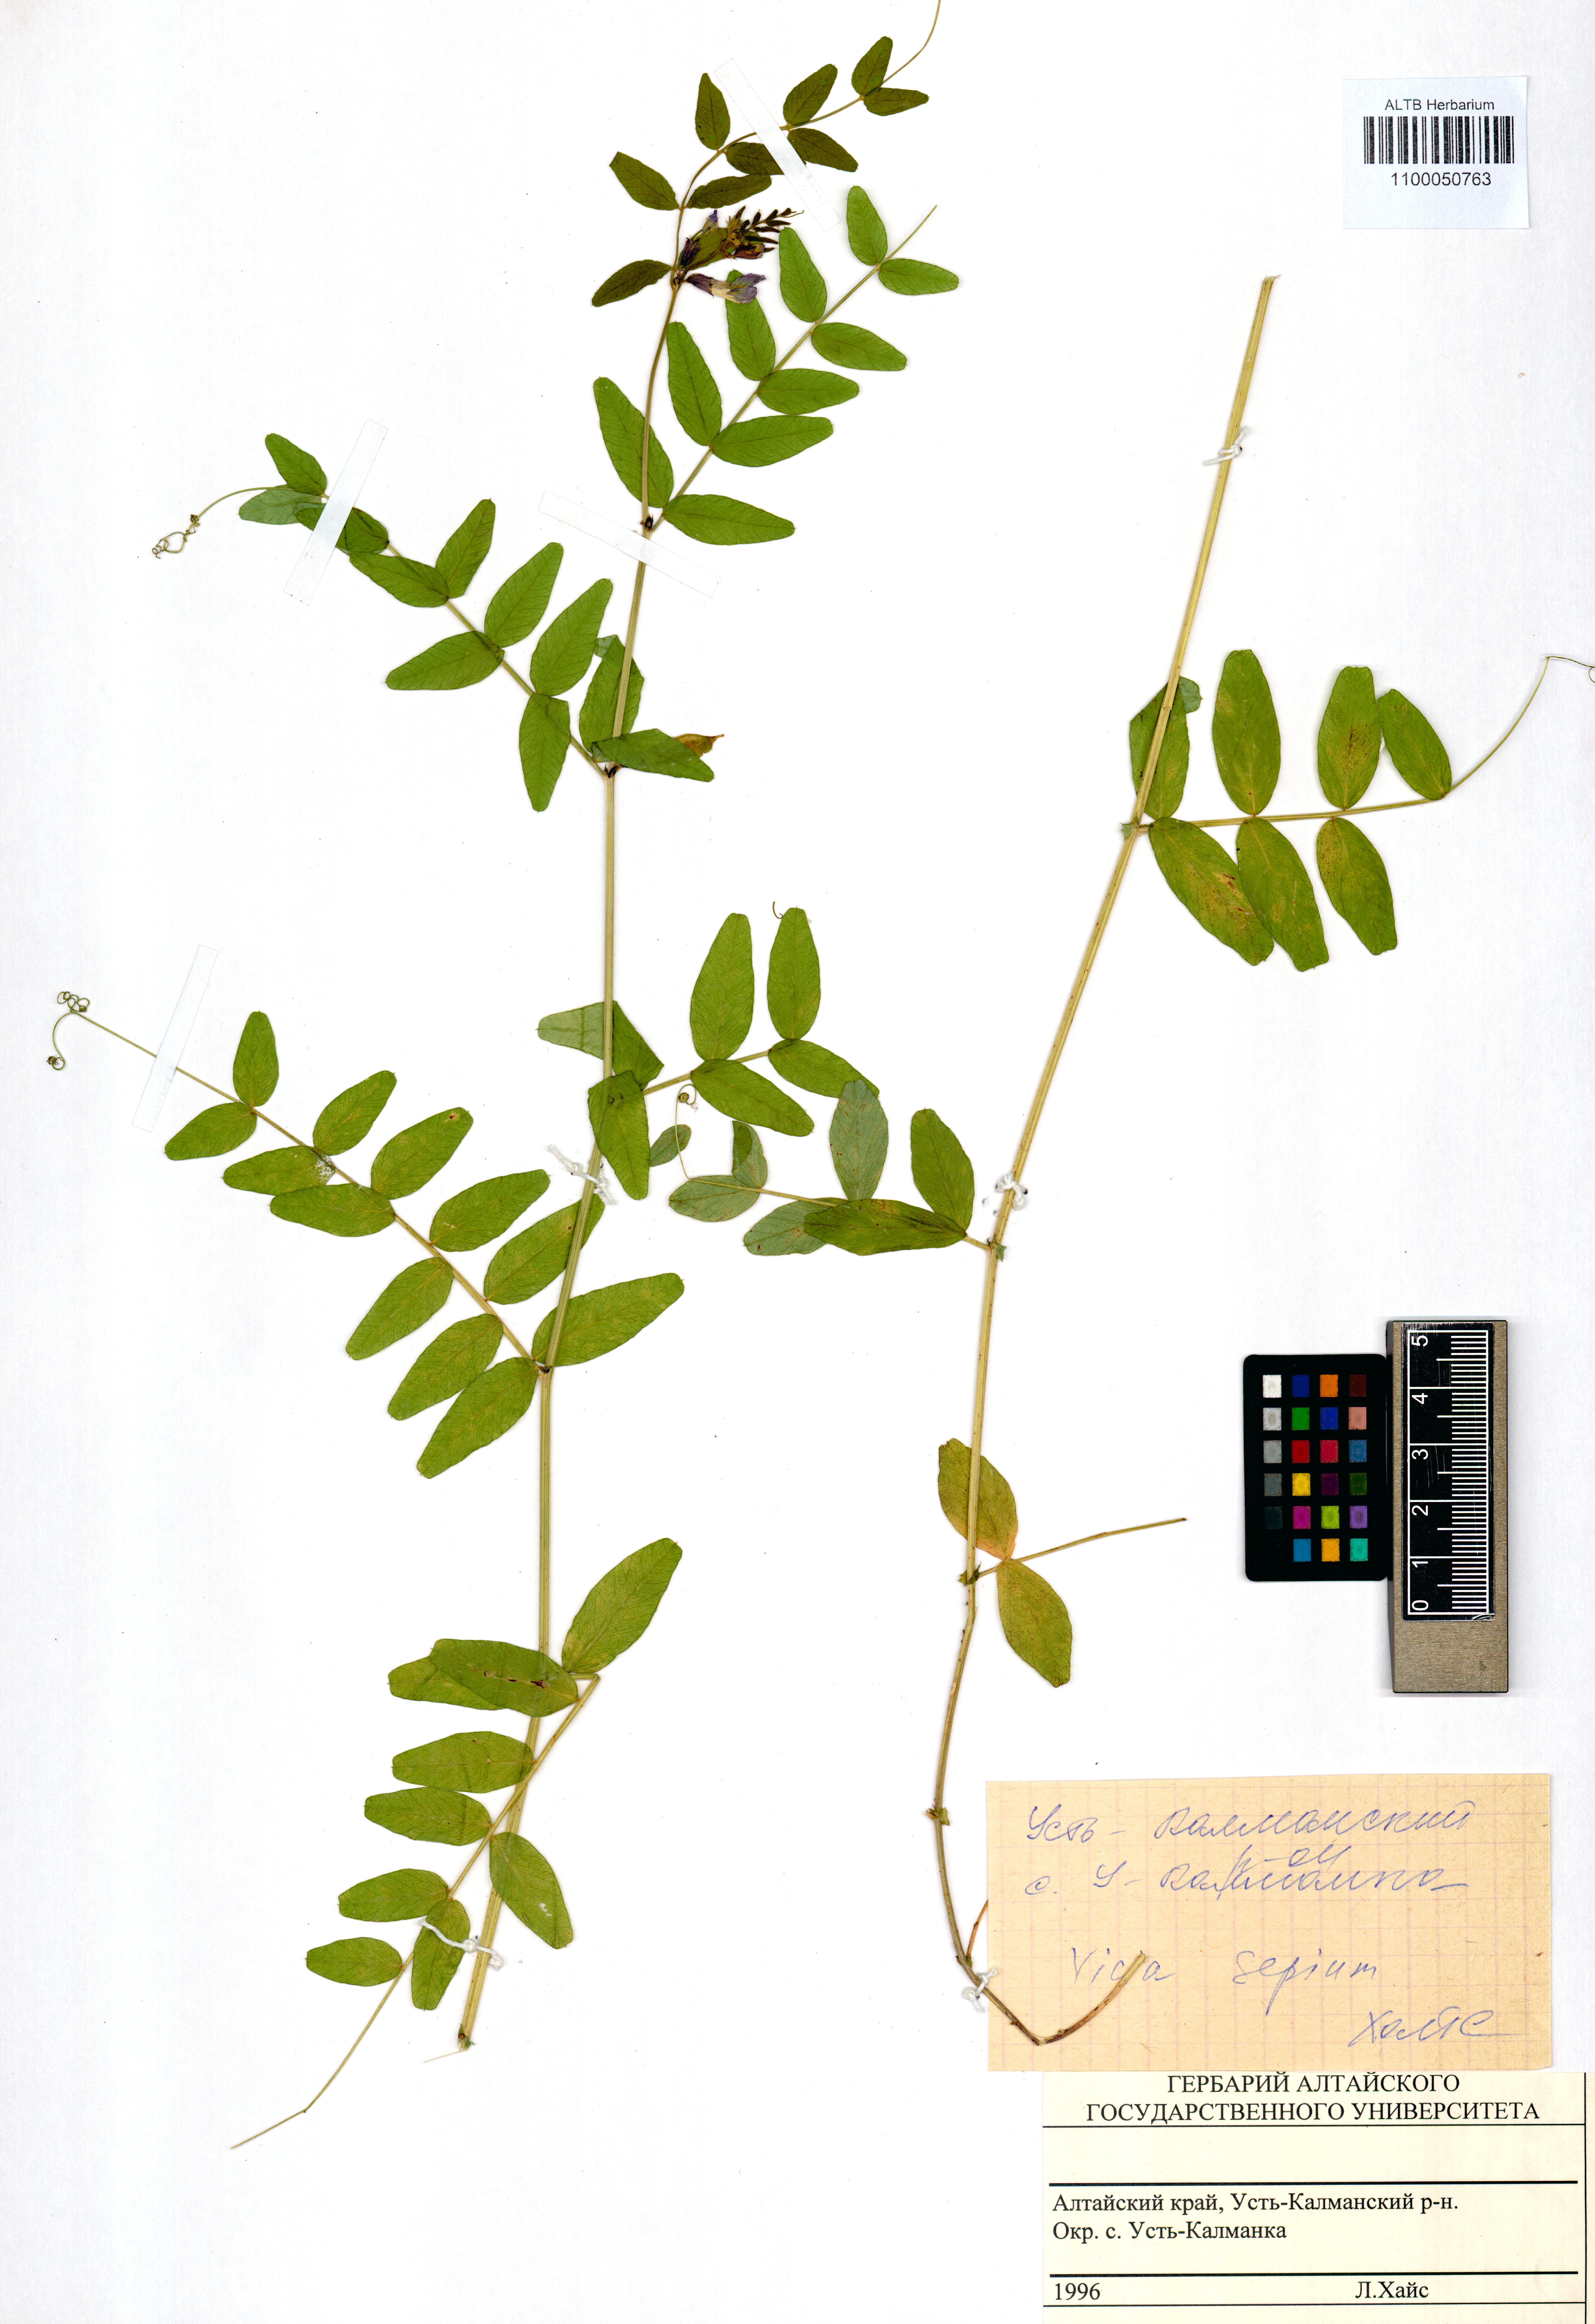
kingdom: Plantae
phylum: Tracheophyta
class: Magnoliopsida
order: Fabales
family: Fabaceae
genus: Vicia
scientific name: Vicia sepium
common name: Bush vetch
